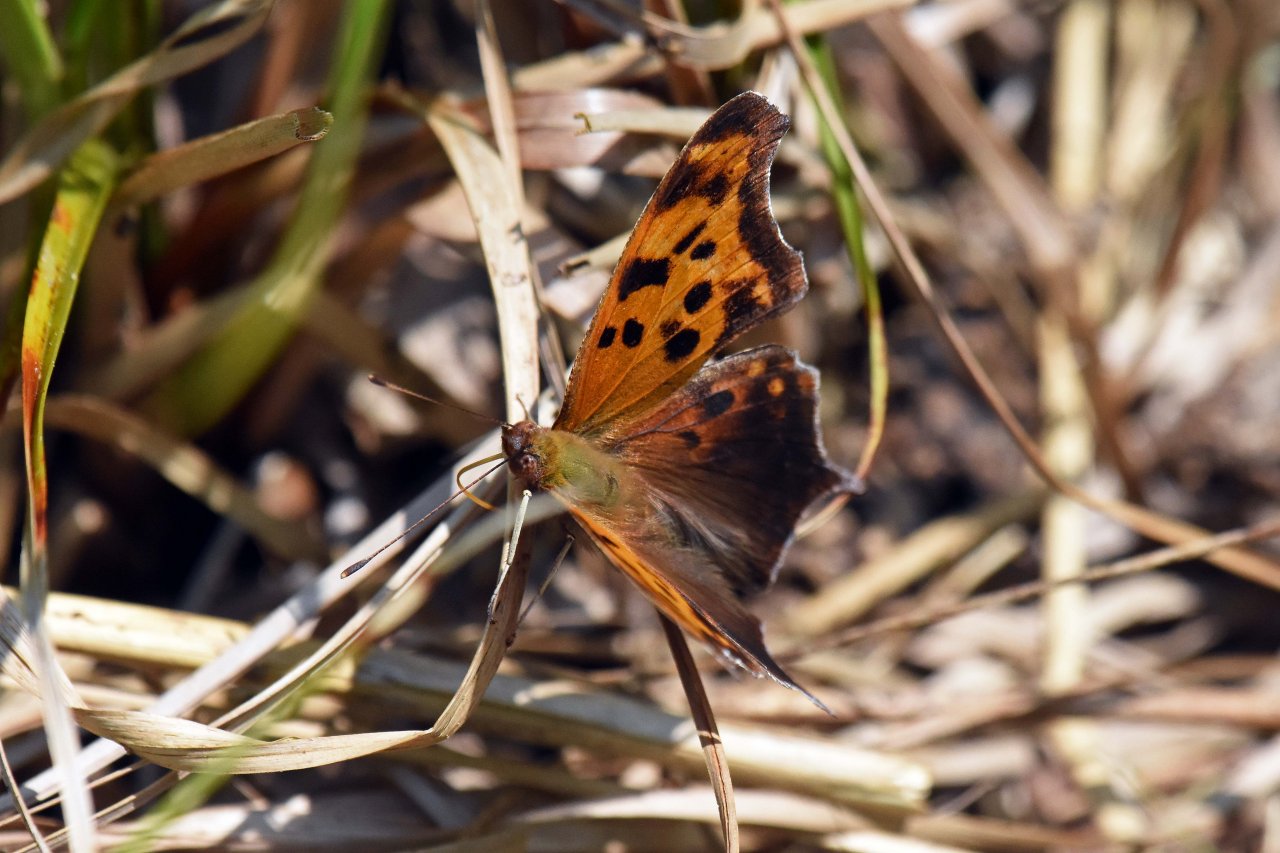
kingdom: Animalia
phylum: Arthropoda
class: Insecta
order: Lepidoptera
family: Nymphalidae
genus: Polygonia
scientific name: Polygonia interrogationis
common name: Question Mark
